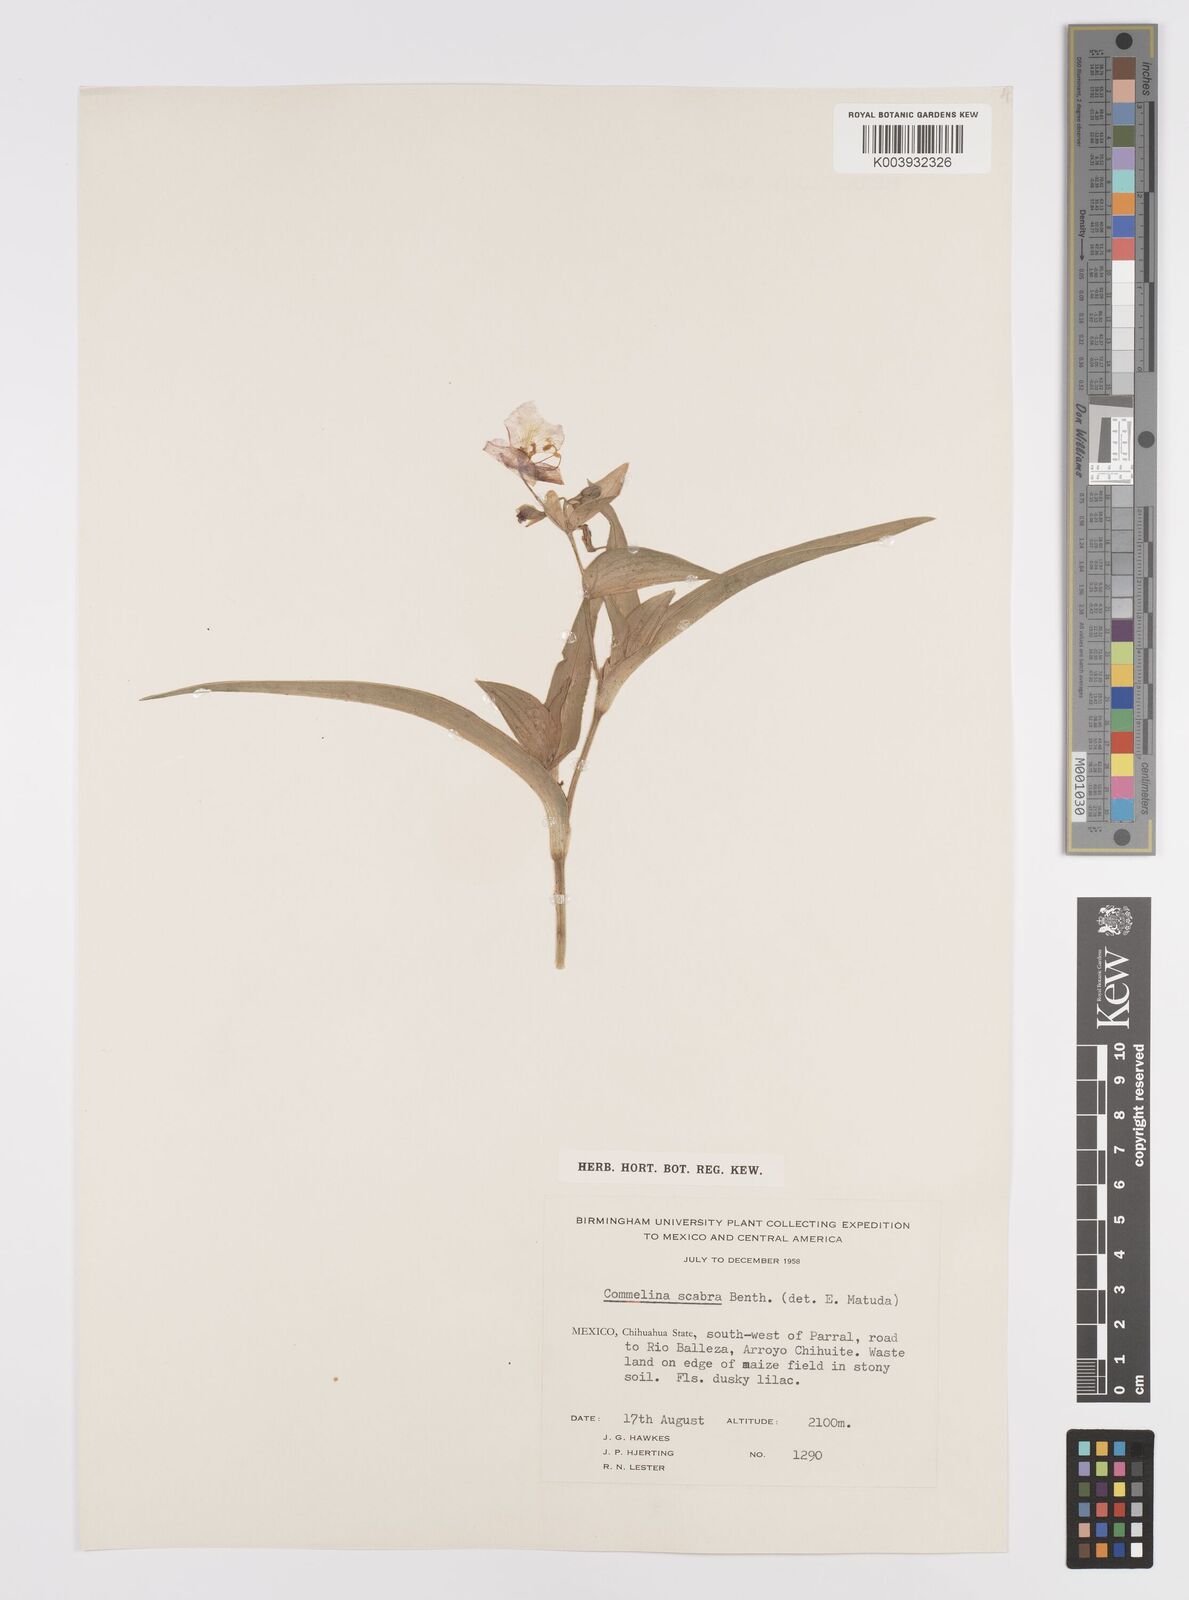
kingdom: Plantae
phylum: Tracheophyta
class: Liliopsida
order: Commelinales
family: Commelinaceae
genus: Commelina
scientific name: Commelina scabra
